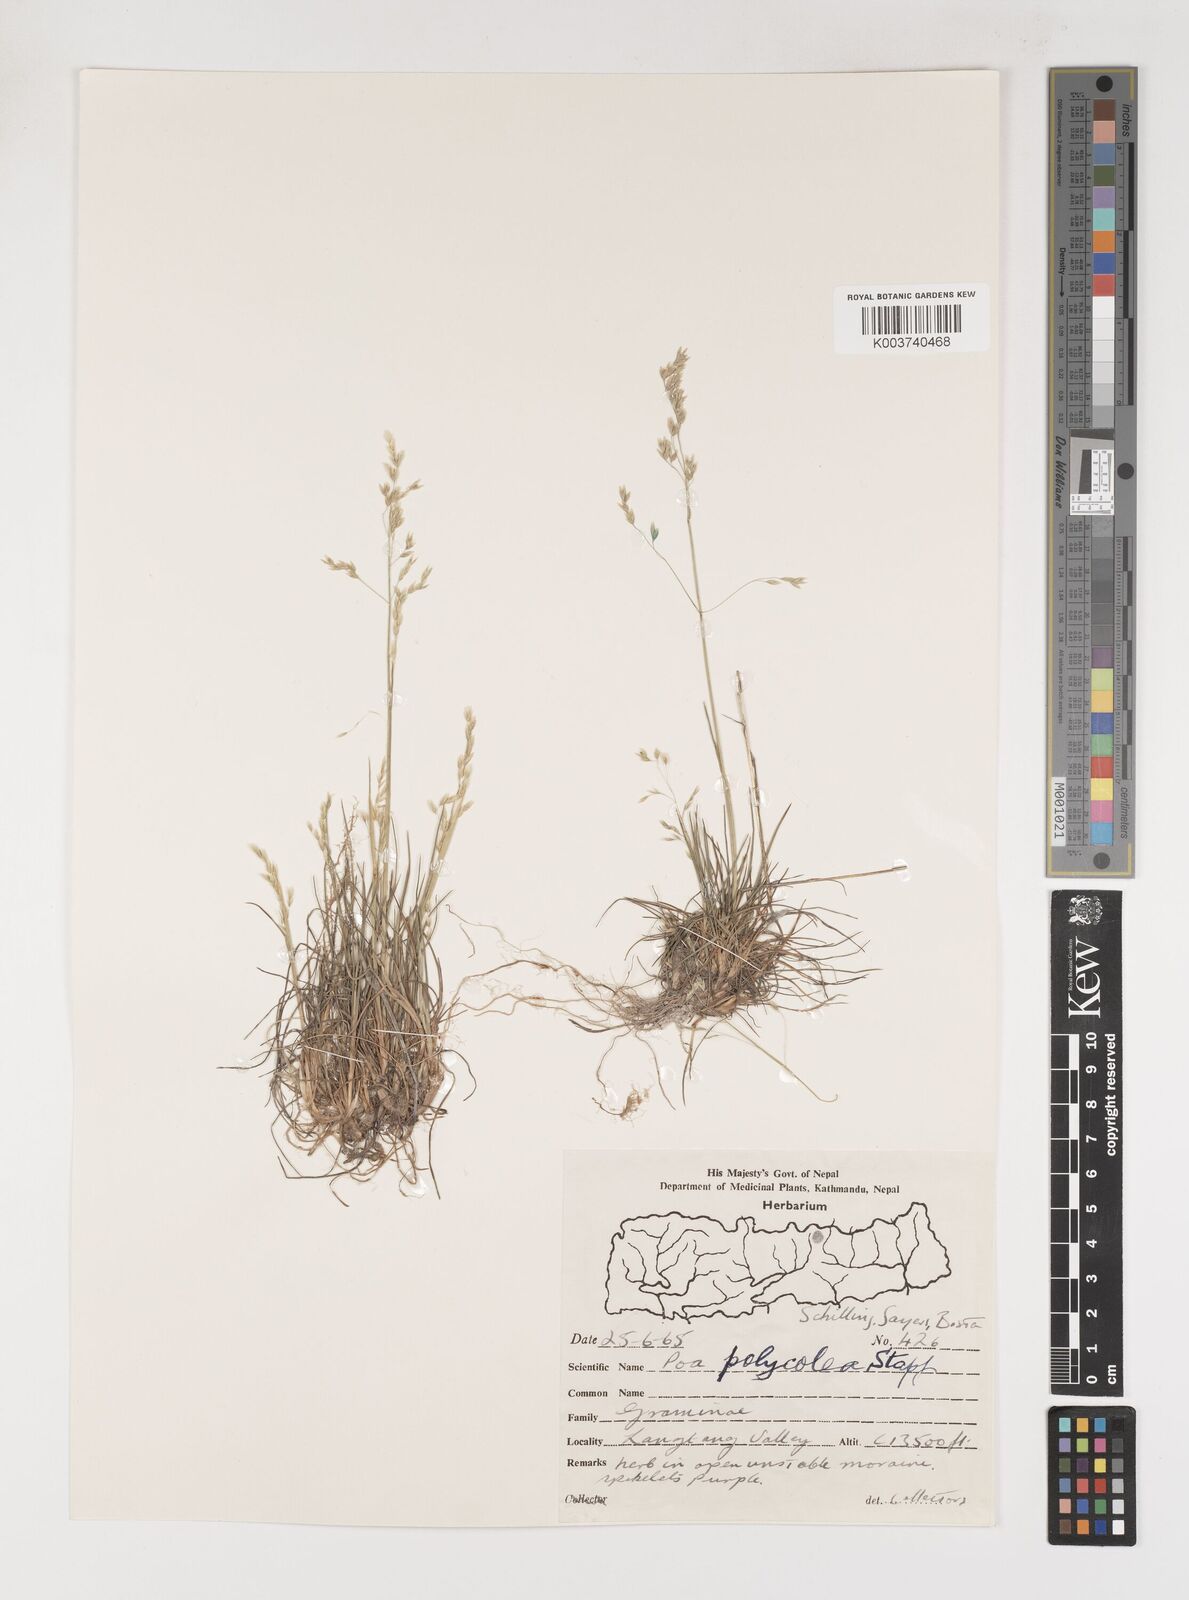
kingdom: Plantae
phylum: Tracheophyta
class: Liliopsida
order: Poales
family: Poaceae
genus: Poa
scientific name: Poa polycolea
